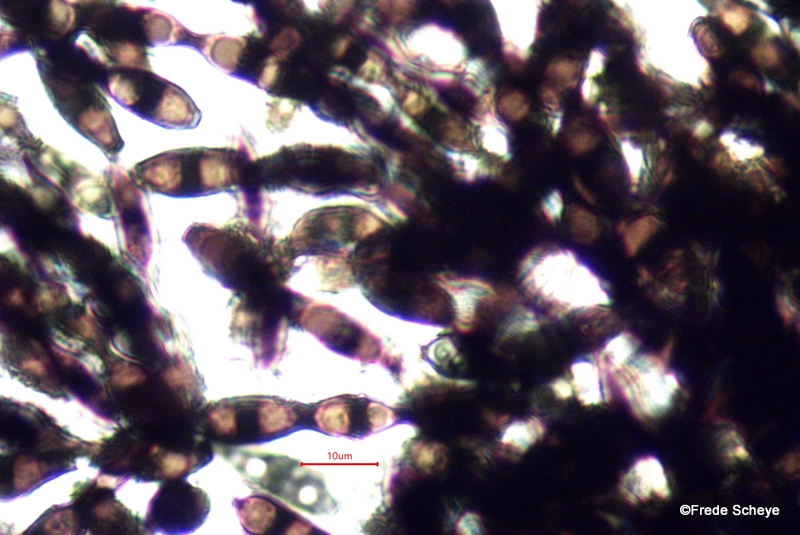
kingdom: Fungi
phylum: Ascomycota
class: Leotiomycetes
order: Helotiales
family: Helotiaceae
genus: Bispora
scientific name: Bispora pallescens
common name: måtte-snitskive
